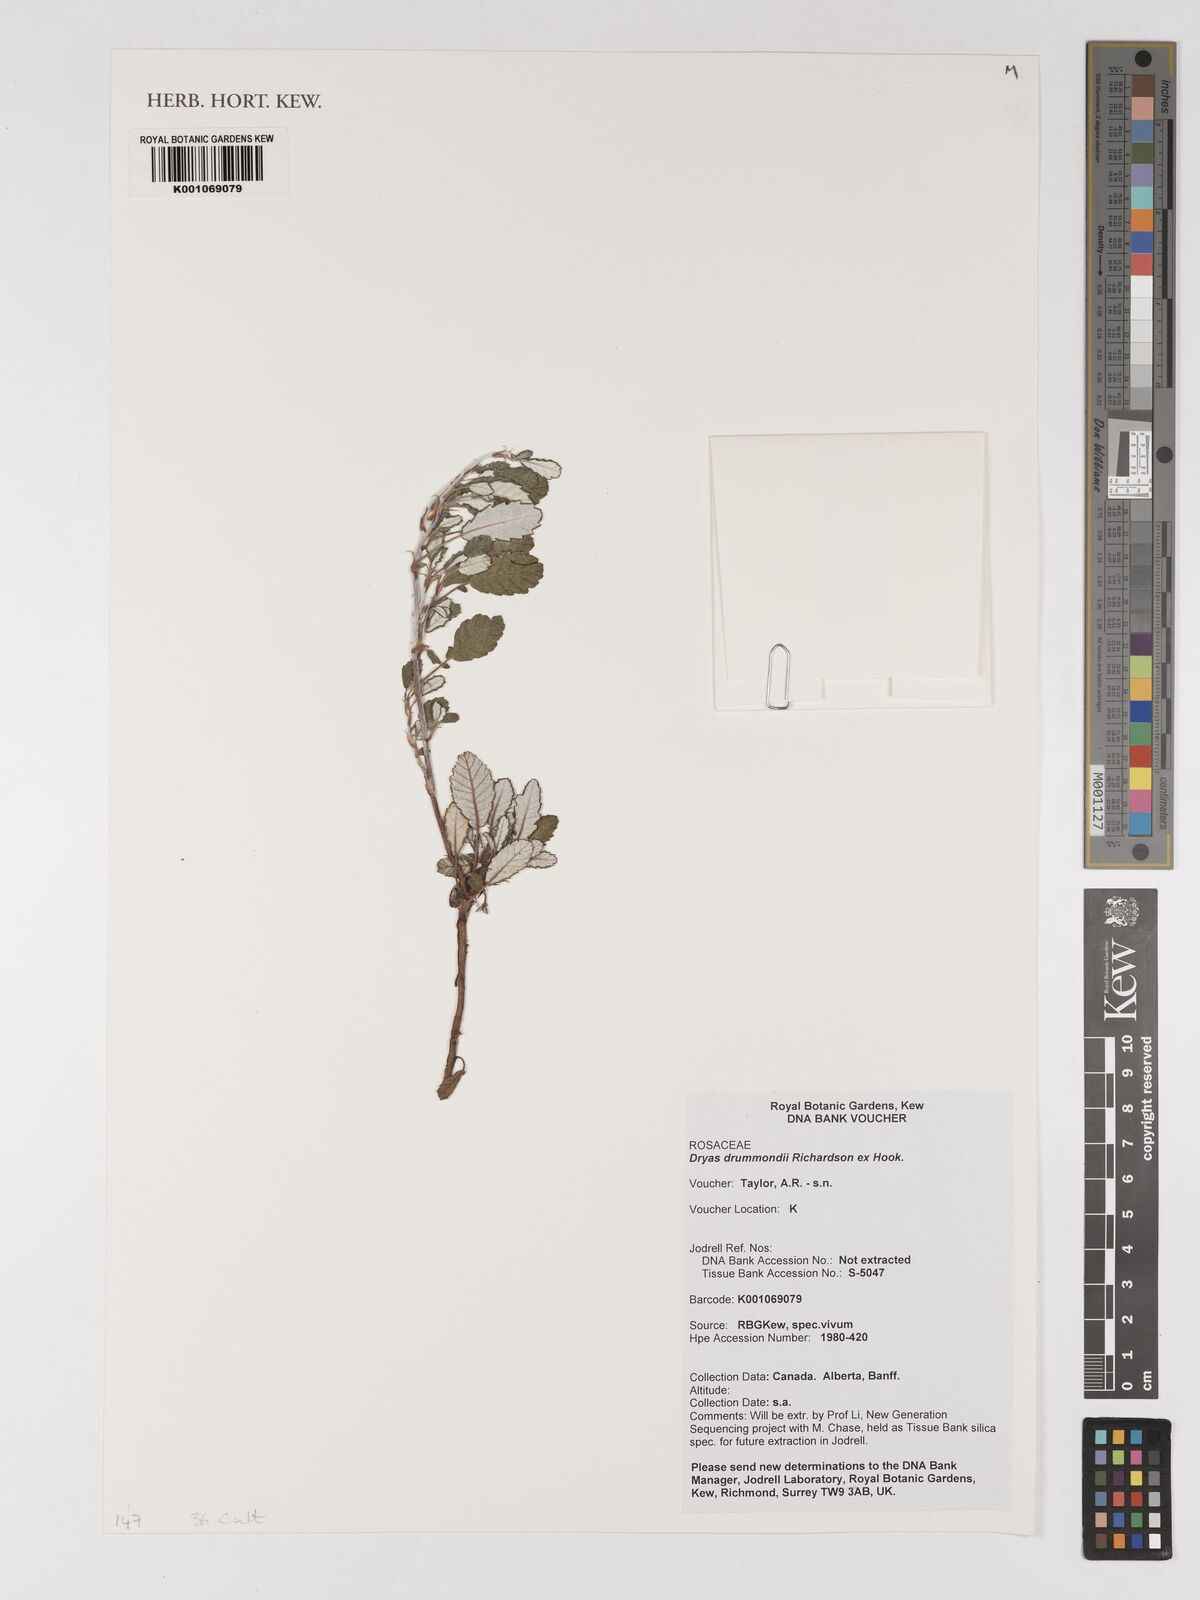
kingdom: Plantae
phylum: Tracheophyta
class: Magnoliopsida
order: Rosales
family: Rosaceae
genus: Dryas
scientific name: Dryas drummondii
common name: Drummond's dryad
